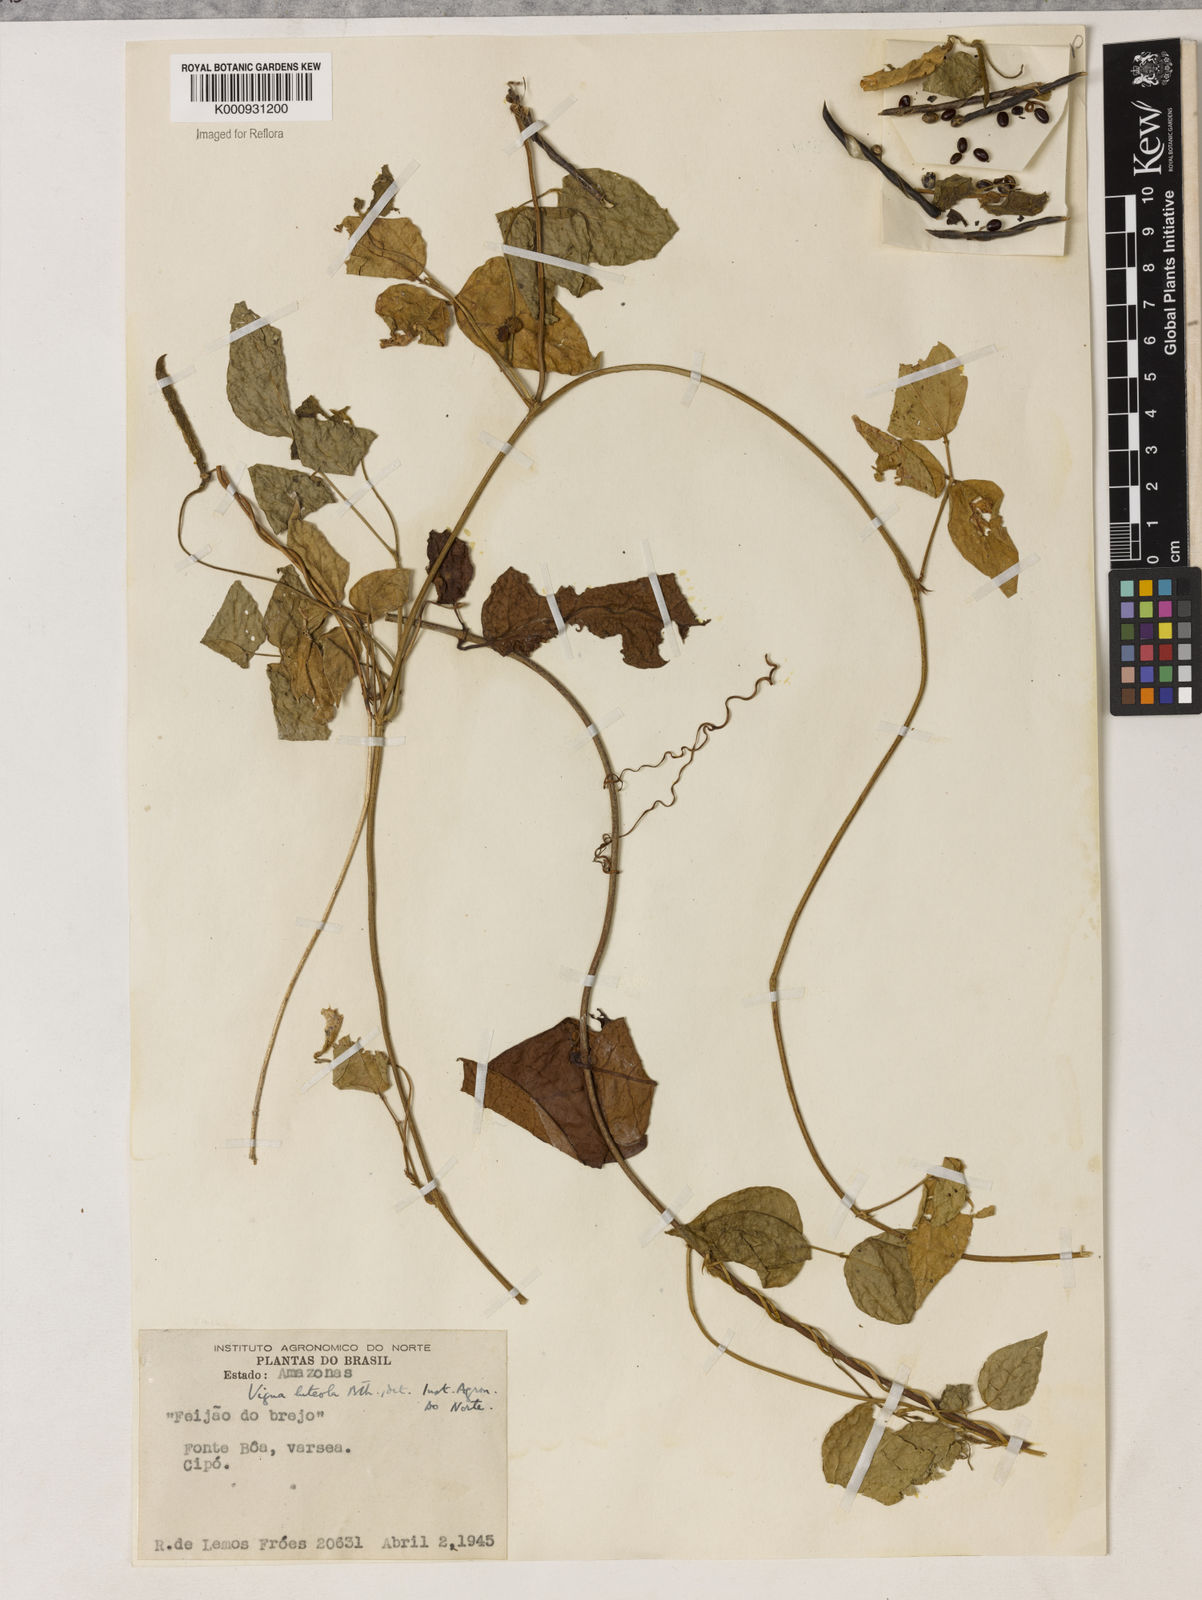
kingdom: Plantae
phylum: Tracheophyta
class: Magnoliopsida
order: Fabales
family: Fabaceae
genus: Vigna
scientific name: Vigna luteola
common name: Hairypod cowpea
